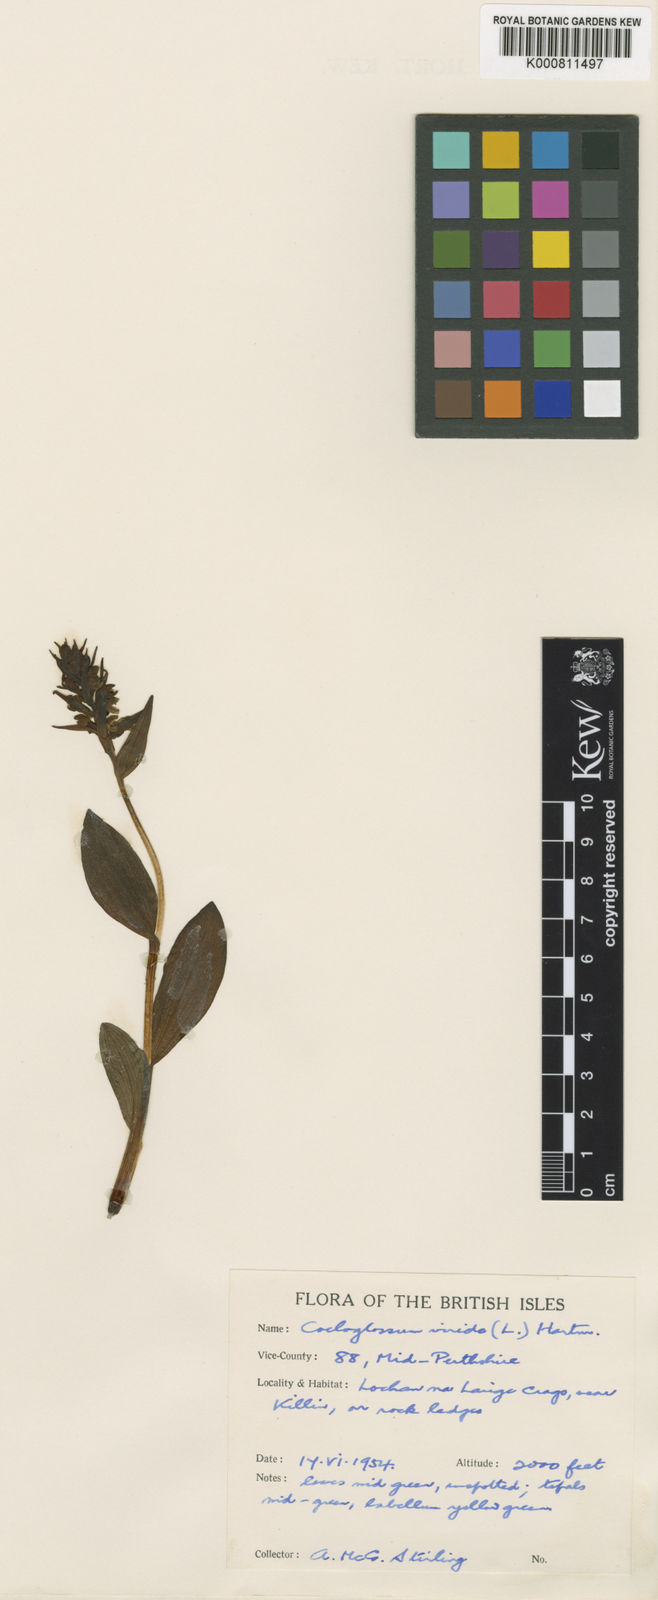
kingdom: Plantae
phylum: Tracheophyta
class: Liliopsida
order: Asparagales
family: Orchidaceae
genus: Dactylorhiza
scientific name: Dactylorhiza viridis
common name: Longbract frog orchid
